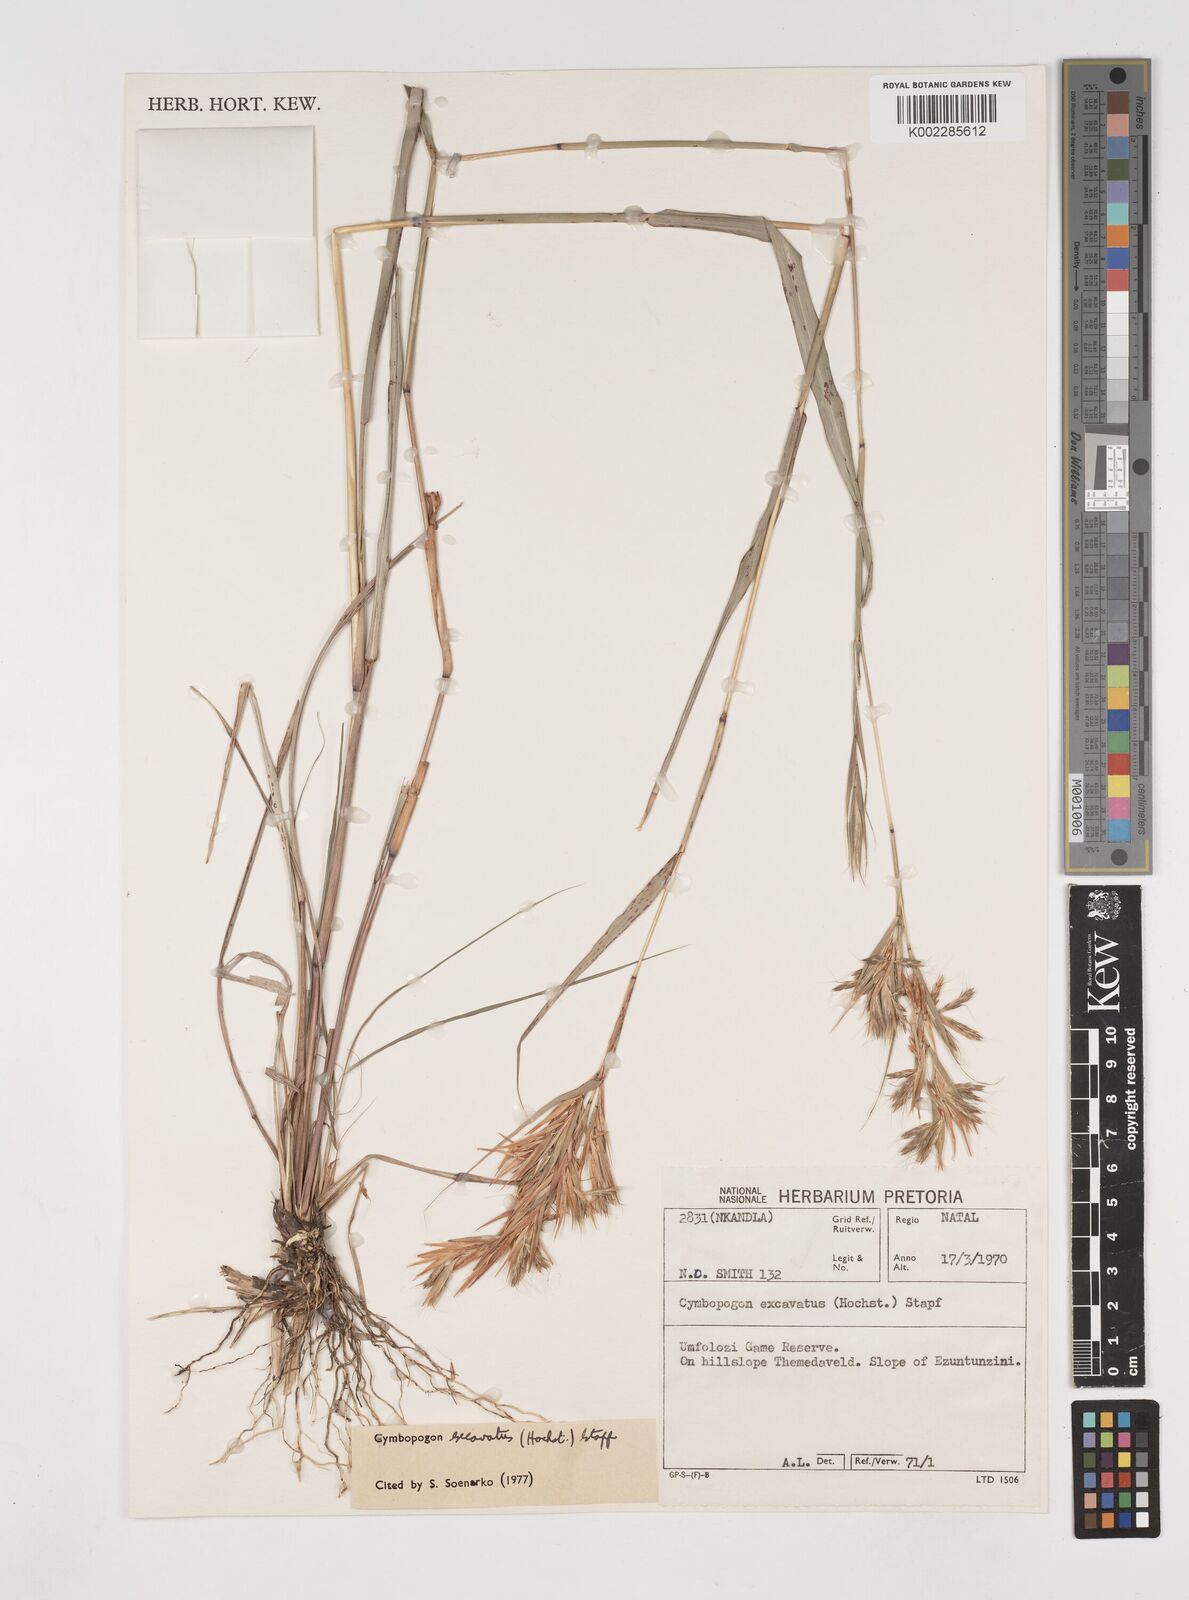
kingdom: Plantae
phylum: Tracheophyta
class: Liliopsida
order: Poales
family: Poaceae
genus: Cymbopogon
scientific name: Cymbopogon caesius
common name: Kachi grass
